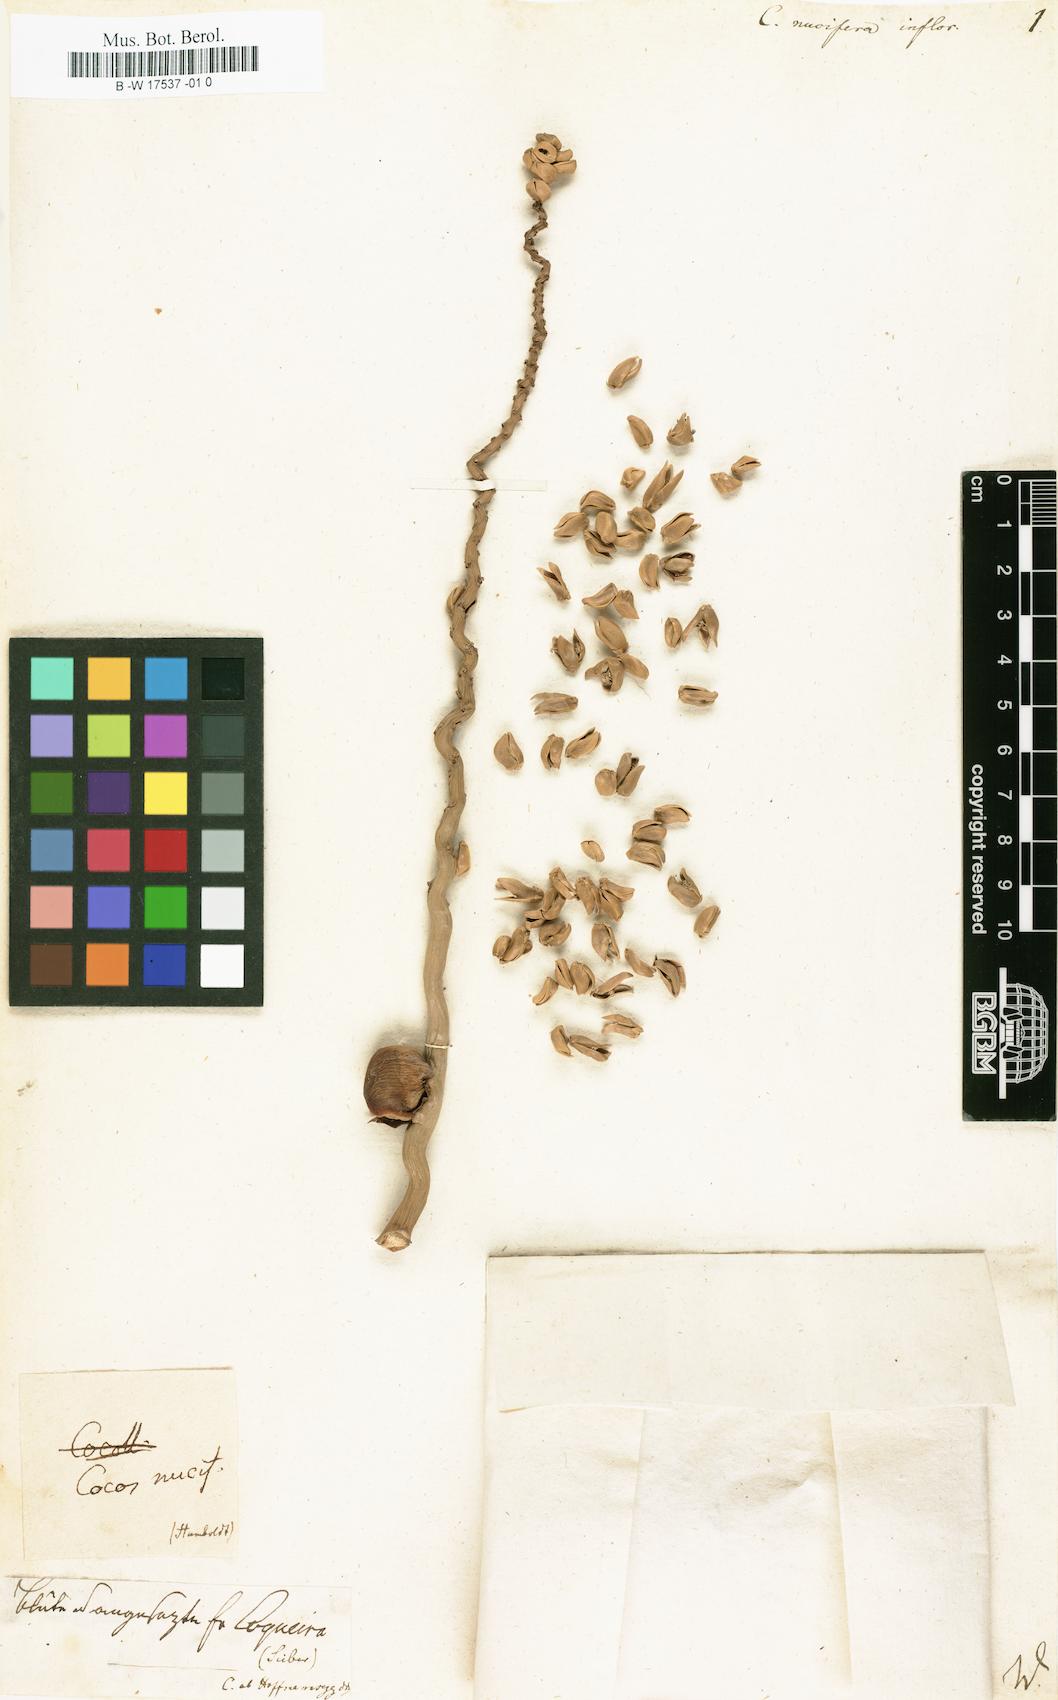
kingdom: Plantae
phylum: Tracheophyta
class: Liliopsida
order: Arecales
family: Arecaceae
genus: Cocos
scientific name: Cocos nucifera
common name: Coconut palm
